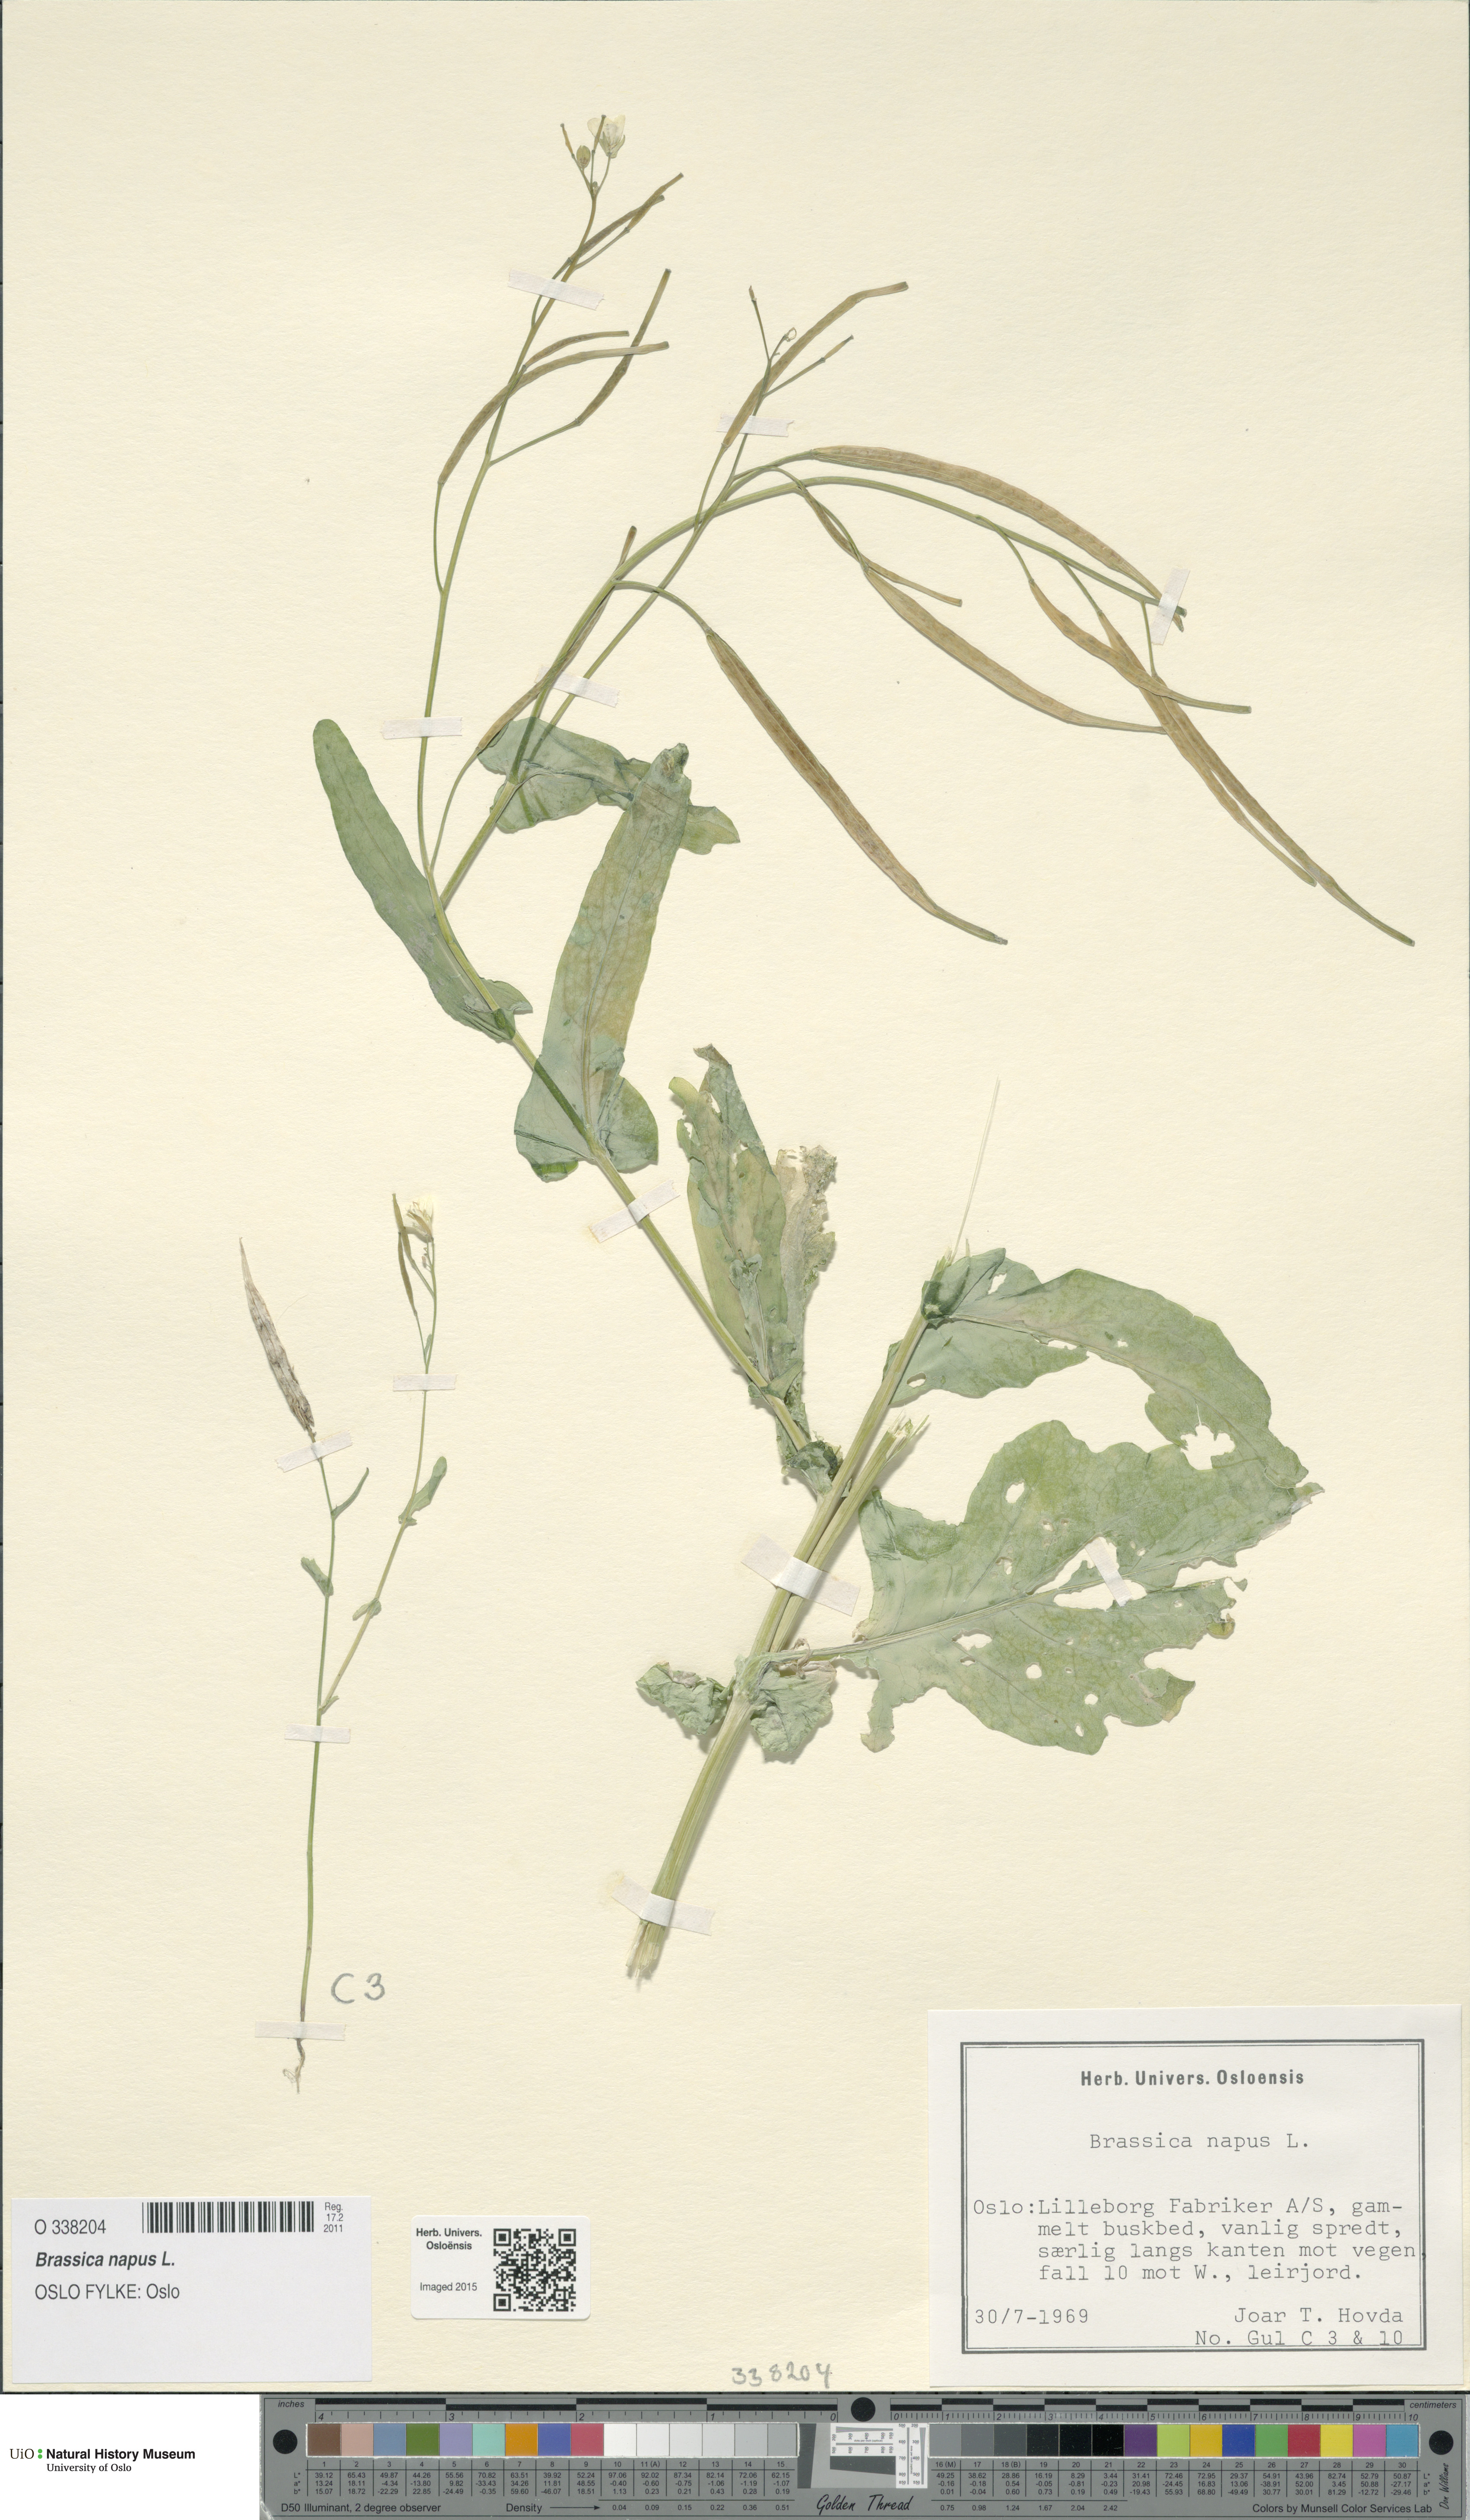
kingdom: Plantae
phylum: Tracheophyta
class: Magnoliopsida
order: Brassicales
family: Brassicaceae
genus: Brassica
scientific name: Brassica napus
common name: Rape
